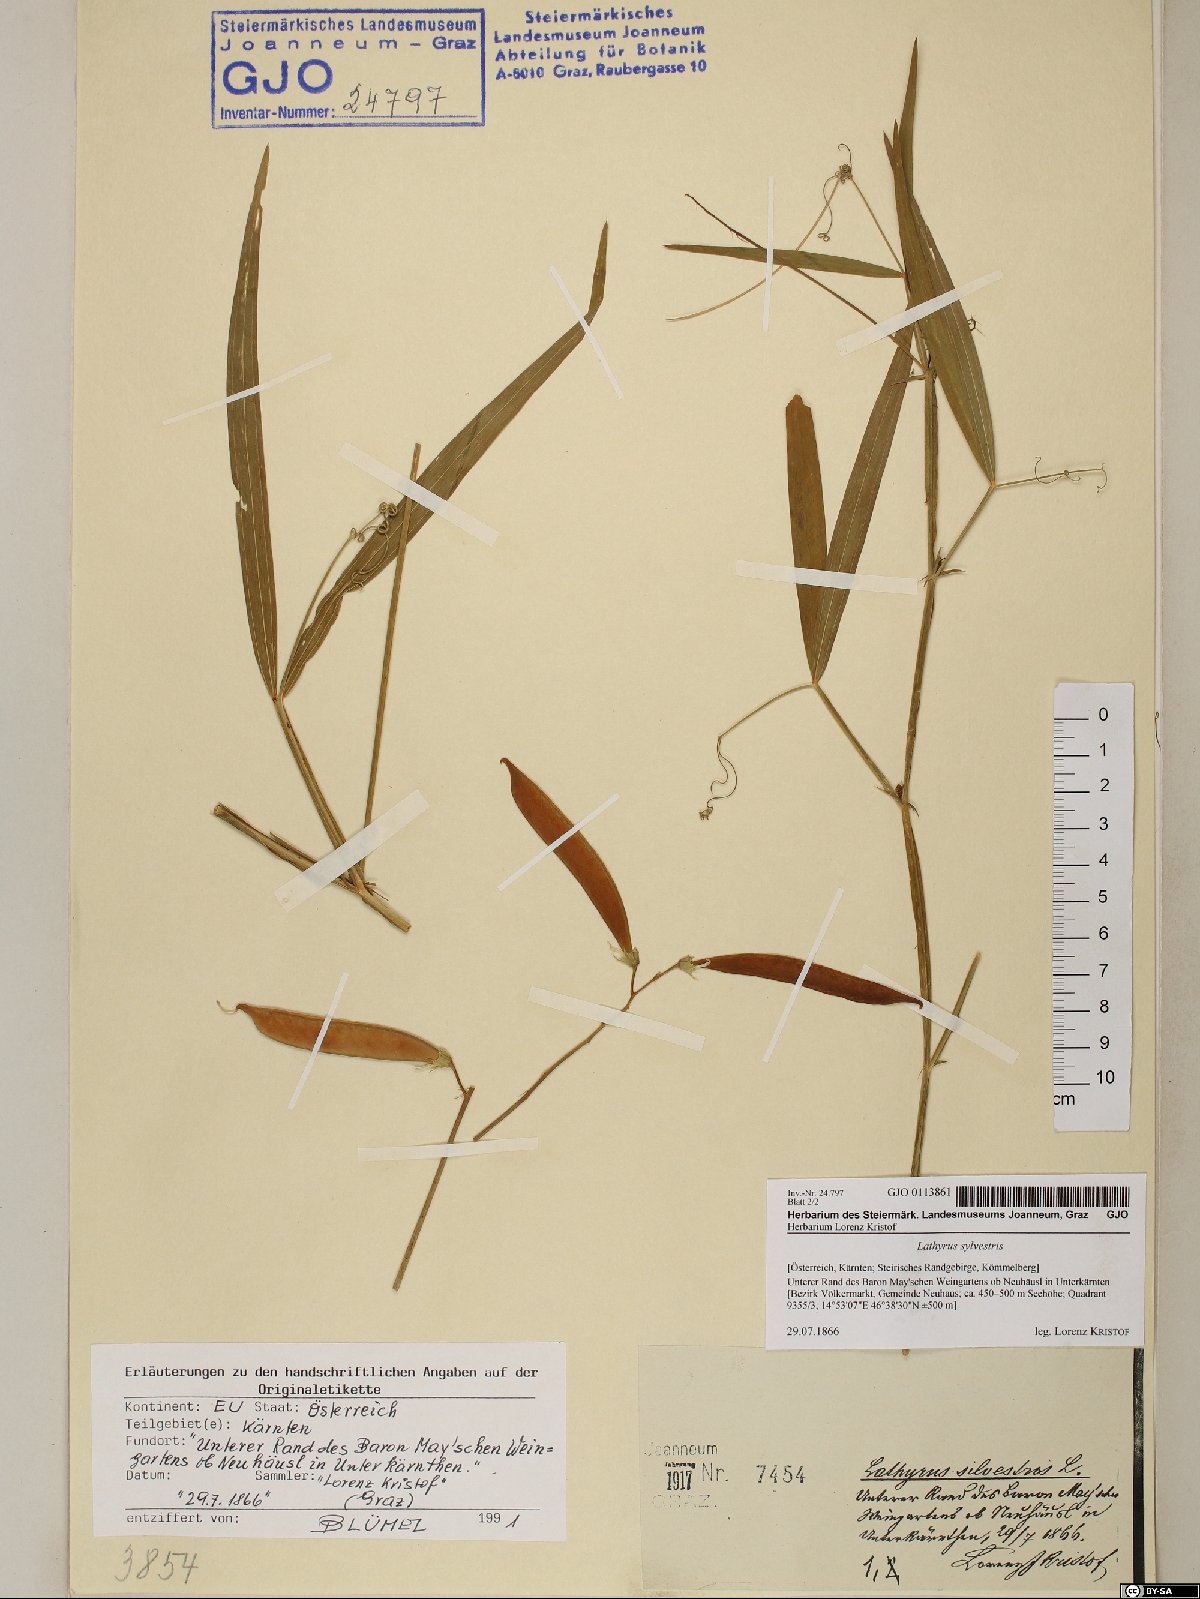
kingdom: Plantae
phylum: Tracheophyta
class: Magnoliopsida
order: Fabales
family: Fabaceae
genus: Lathyrus
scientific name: Lathyrus sylvestris
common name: Flat pea
